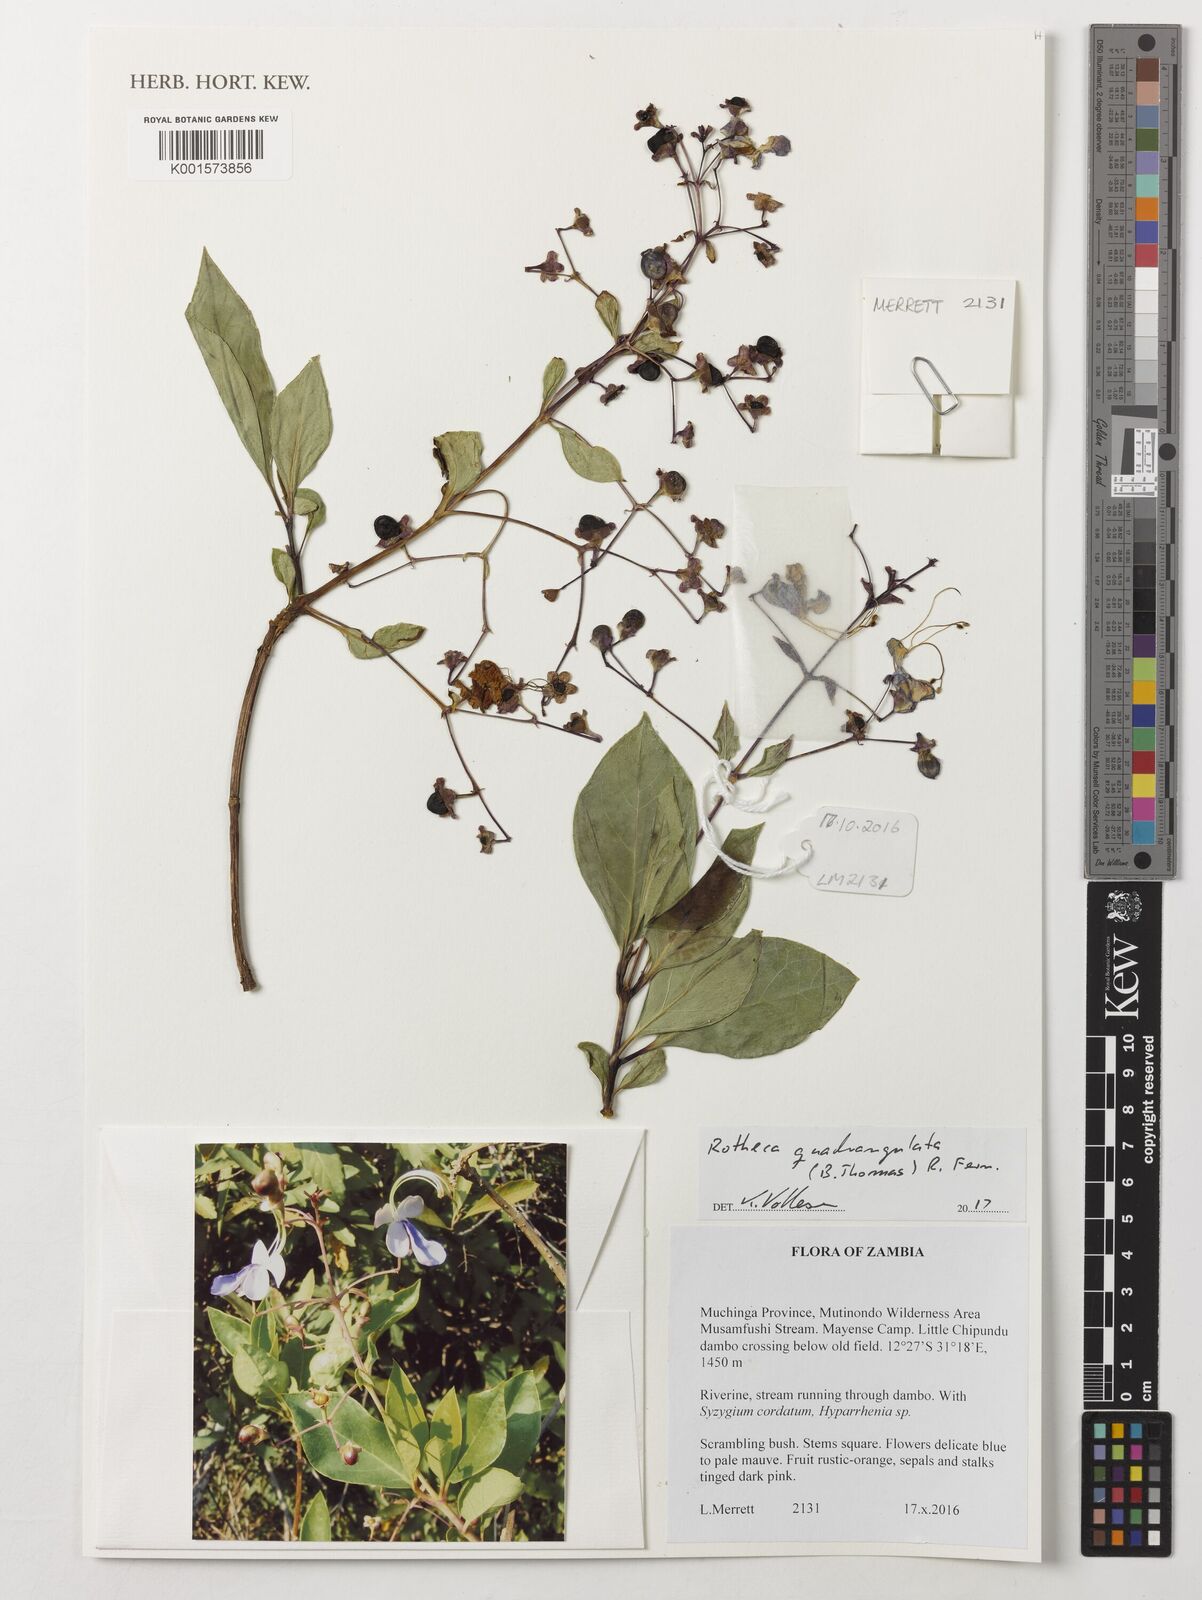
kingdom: Plantae
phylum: Tracheophyta
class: Magnoliopsida
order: Lamiales
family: Lamiaceae
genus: Rotheca
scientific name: Rotheca quadrangulata
